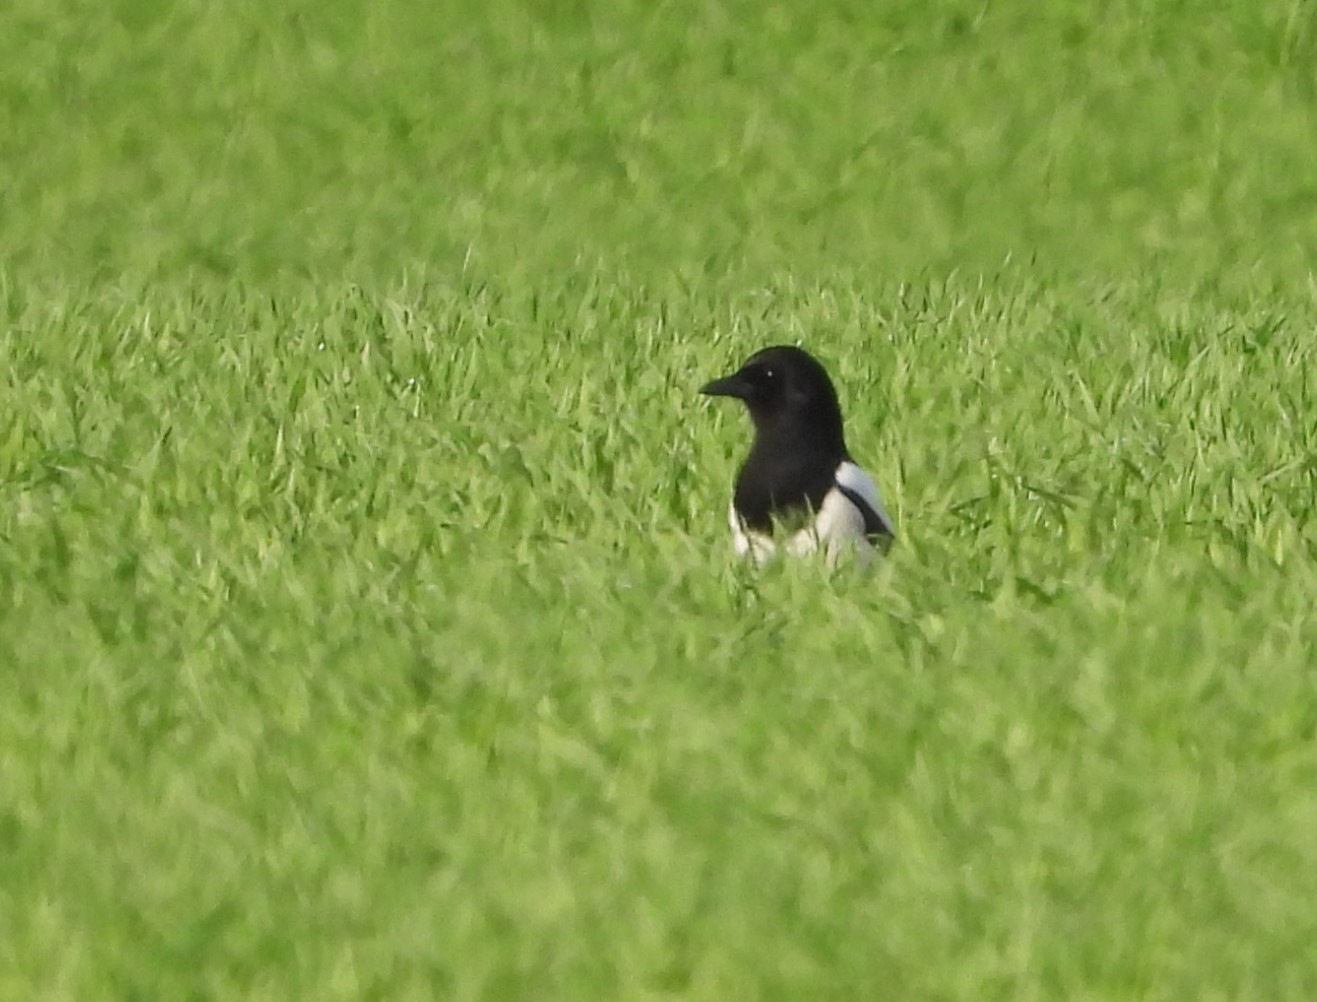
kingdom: Animalia
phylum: Chordata
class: Aves
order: Passeriformes
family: Corvidae
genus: Pica
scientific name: Pica pica
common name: Husskade
